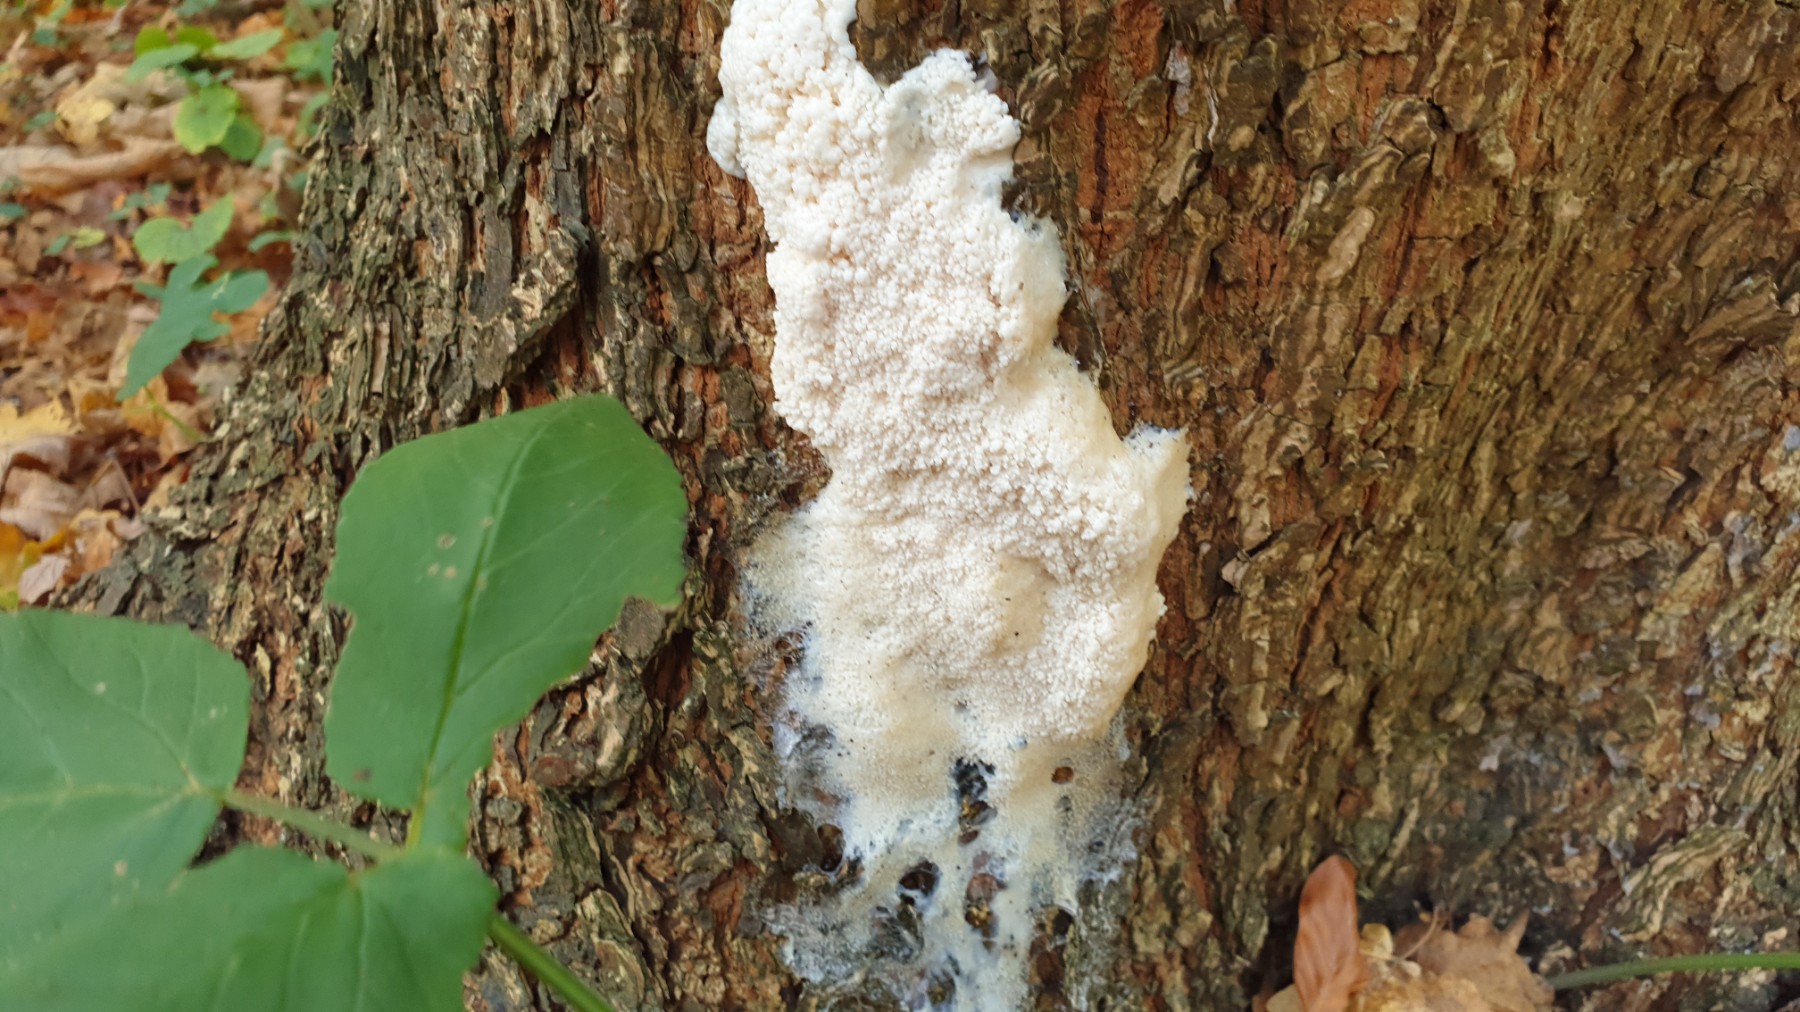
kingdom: Protozoa
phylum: Mycetozoa
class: Myxomycetes
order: Stemonitidales
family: Stemonitidaceae
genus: Brefeldia
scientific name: Brefeldia maxima
